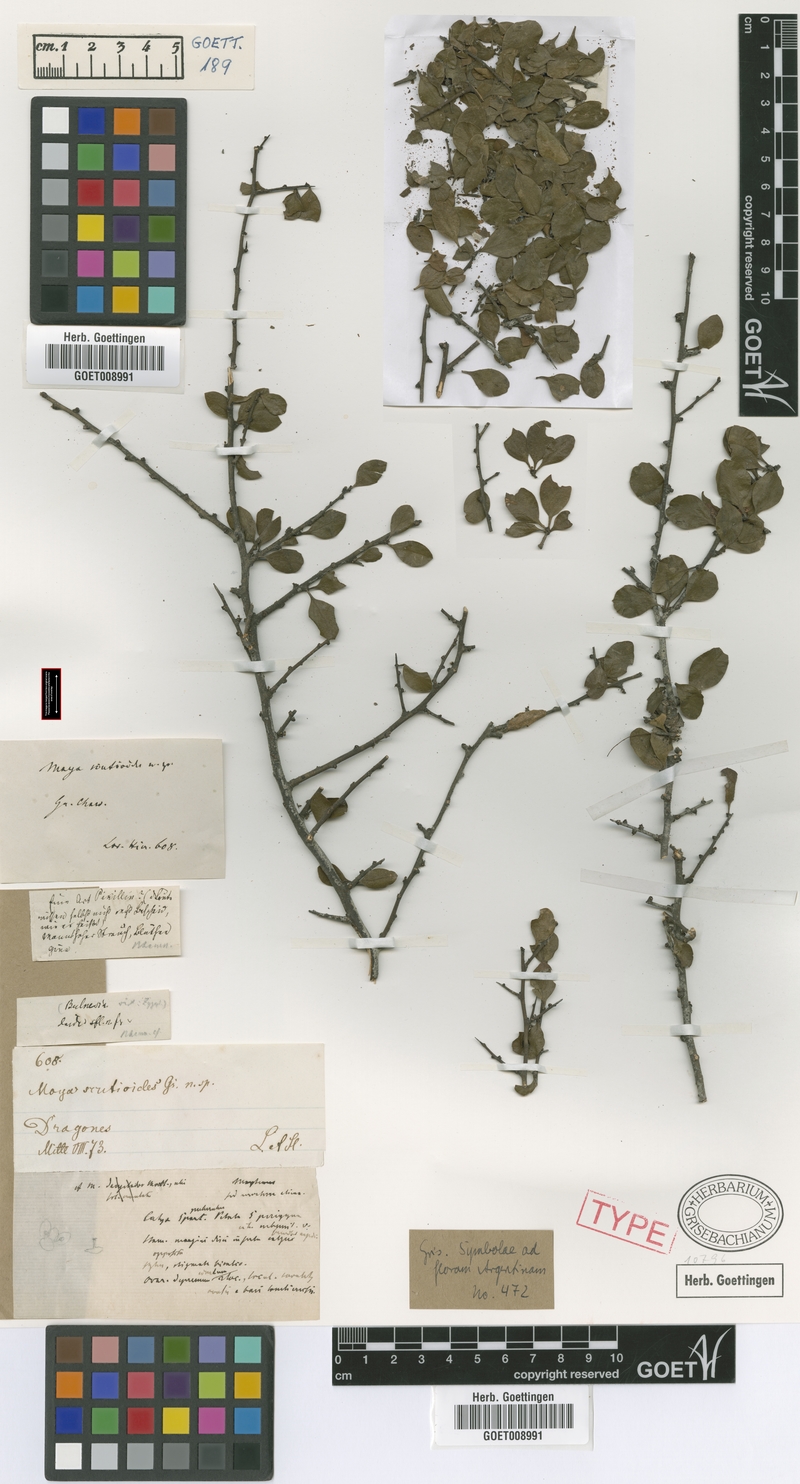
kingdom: Plantae
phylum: Tracheophyta
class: Magnoliopsida
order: Celastrales
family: Celastraceae
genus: Monteverdia
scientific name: Monteverdia spinosa
